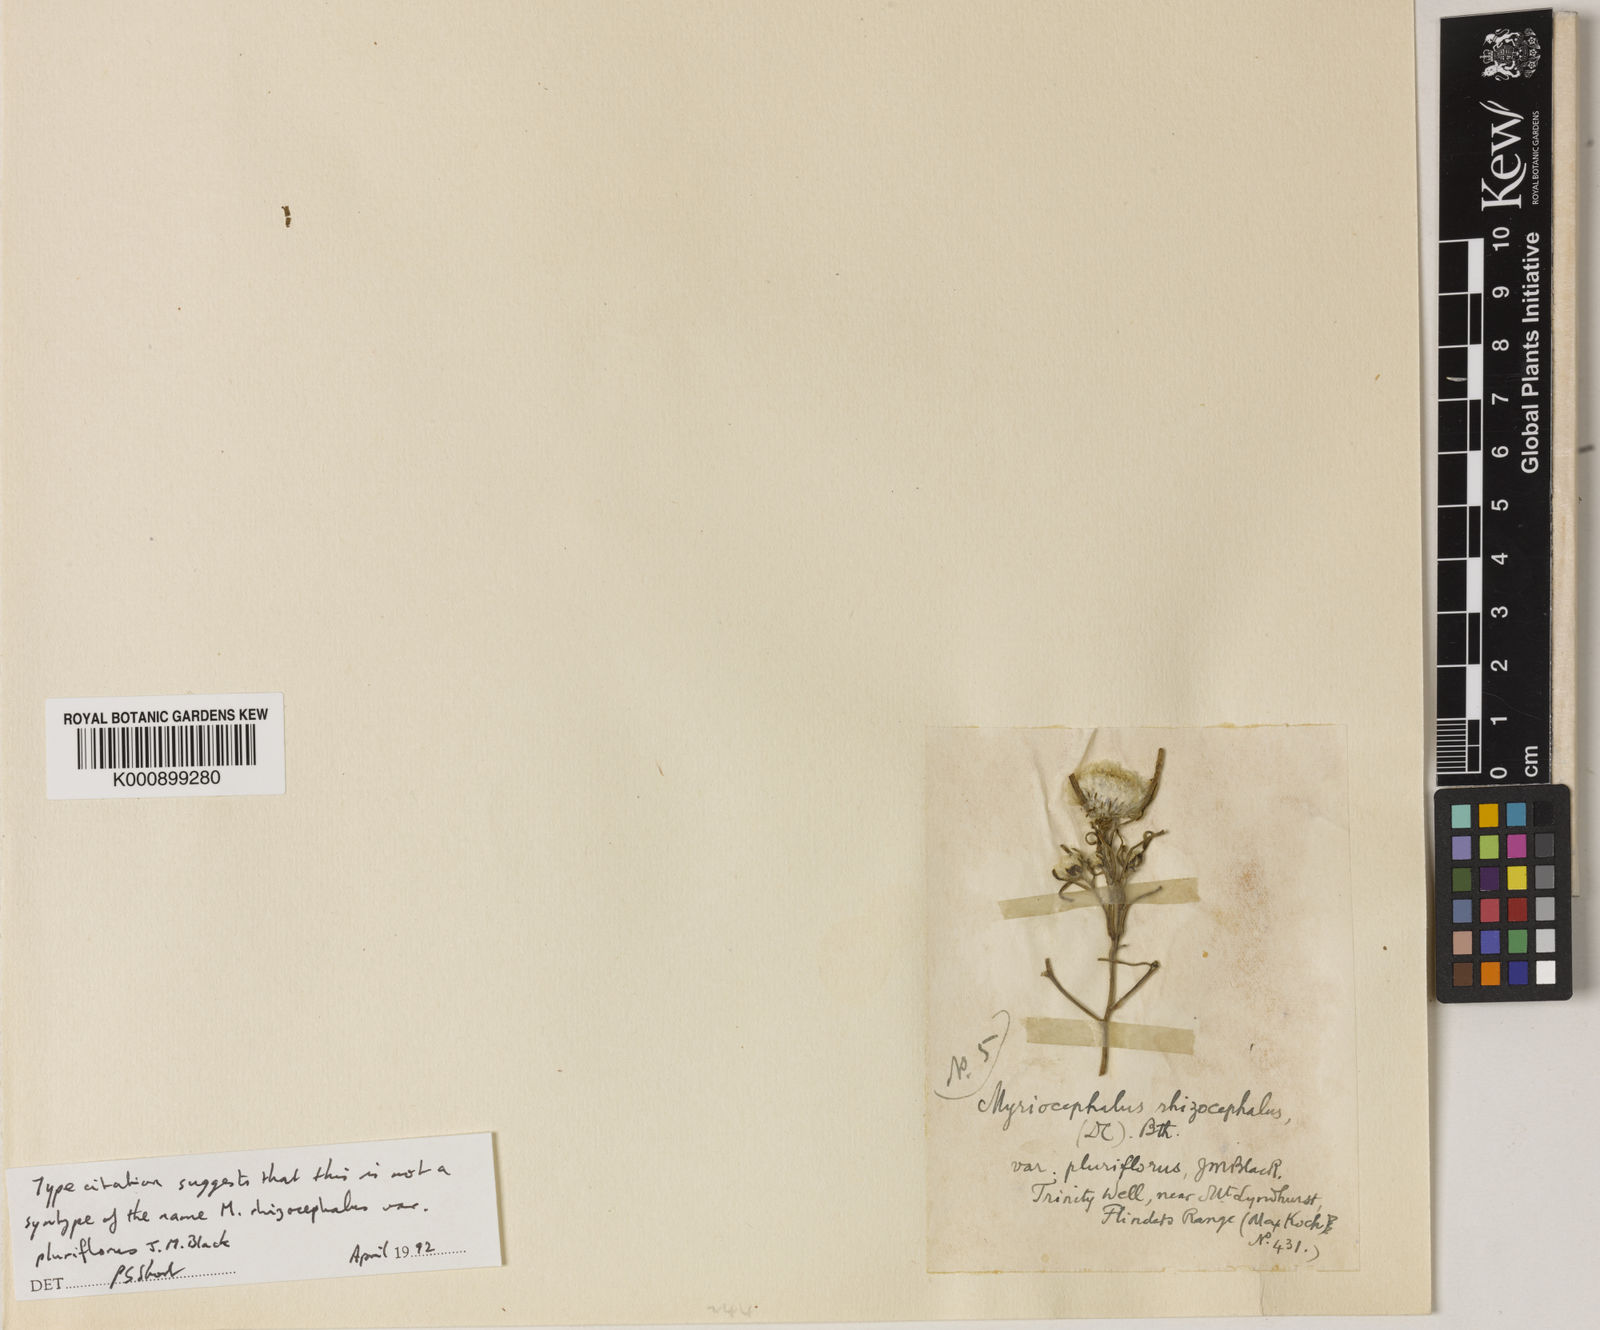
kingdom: Plantae
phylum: Tracheophyta
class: Magnoliopsida
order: Asterales
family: Asteraceae
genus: Myriocephalus
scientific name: Myriocephalus pluriflorus
